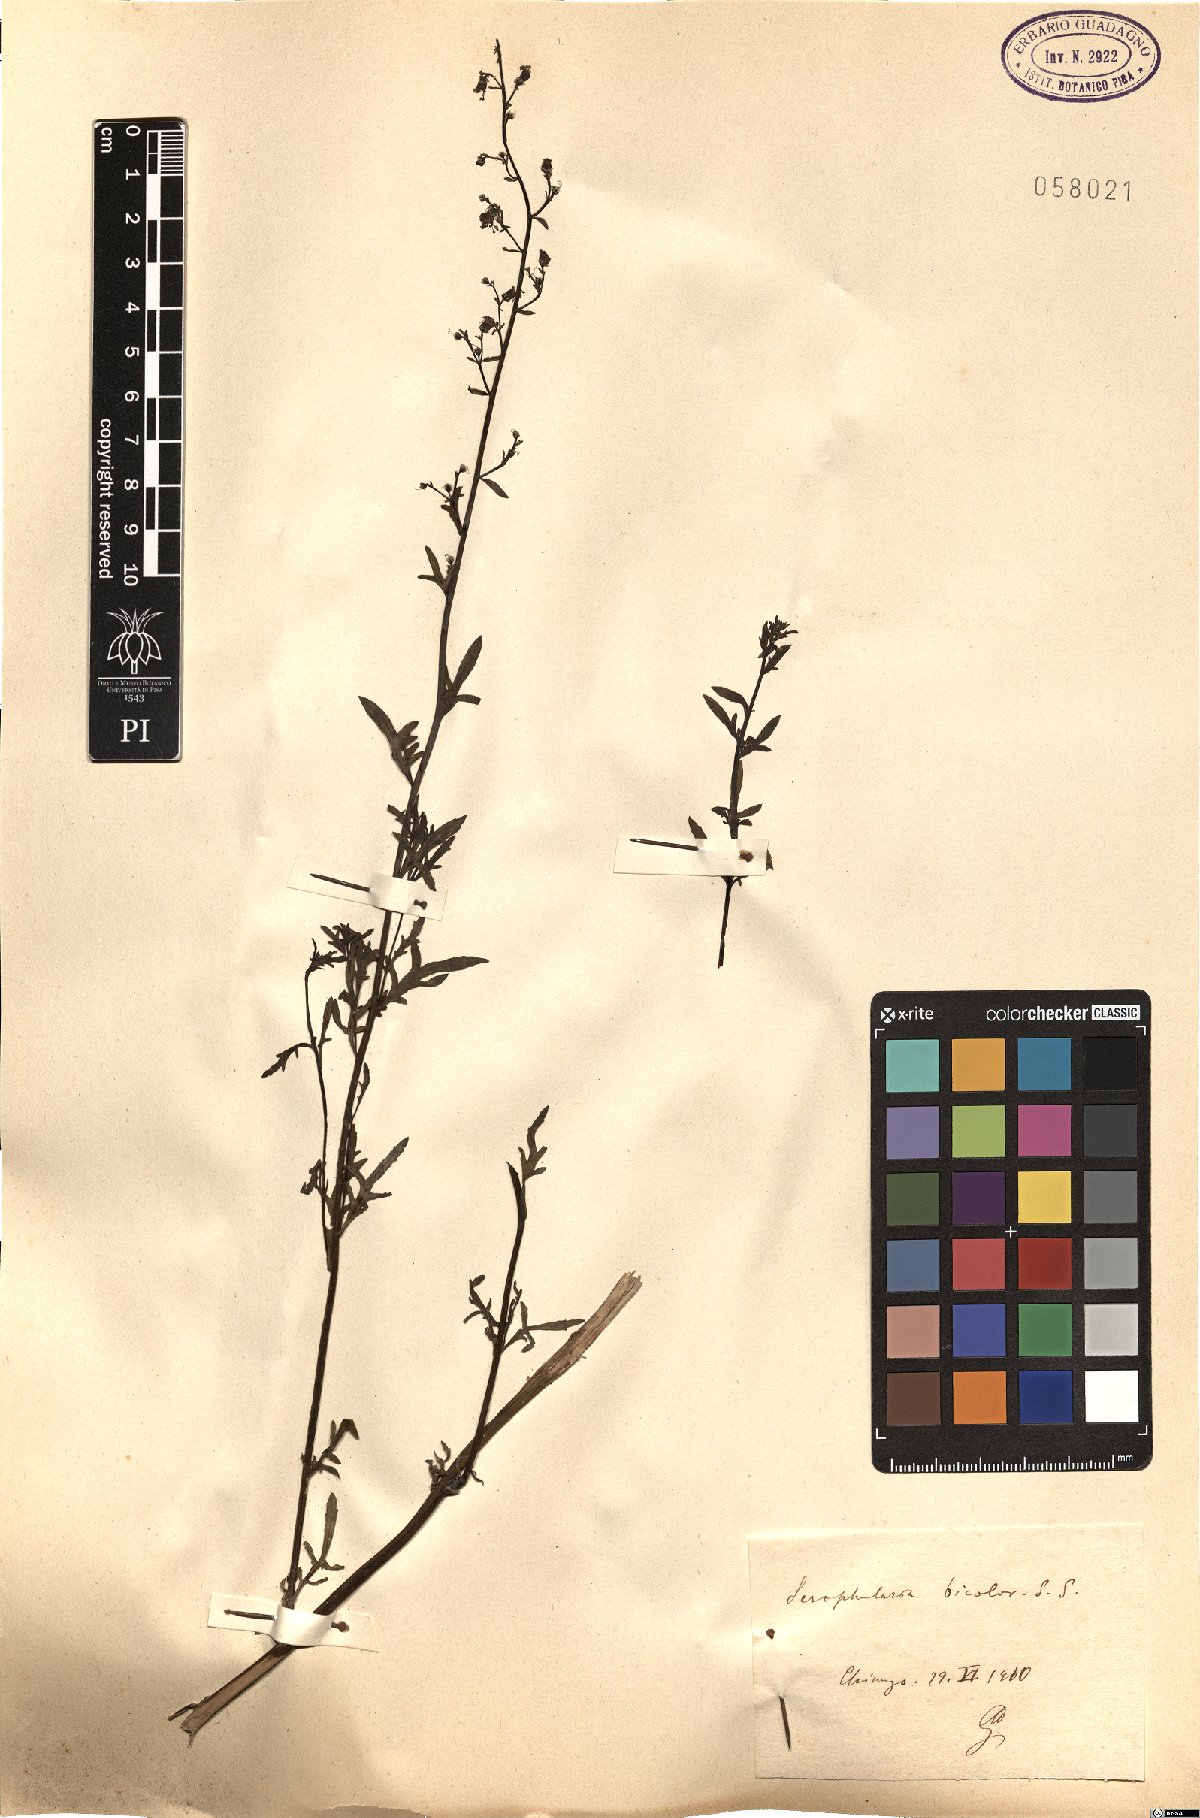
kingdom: Plantae
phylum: Tracheophyta
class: Magnoliopsida
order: Lamiales
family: Scrophulariaceae
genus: Scrophularia
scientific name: Scrophularia canina
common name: French figwort
